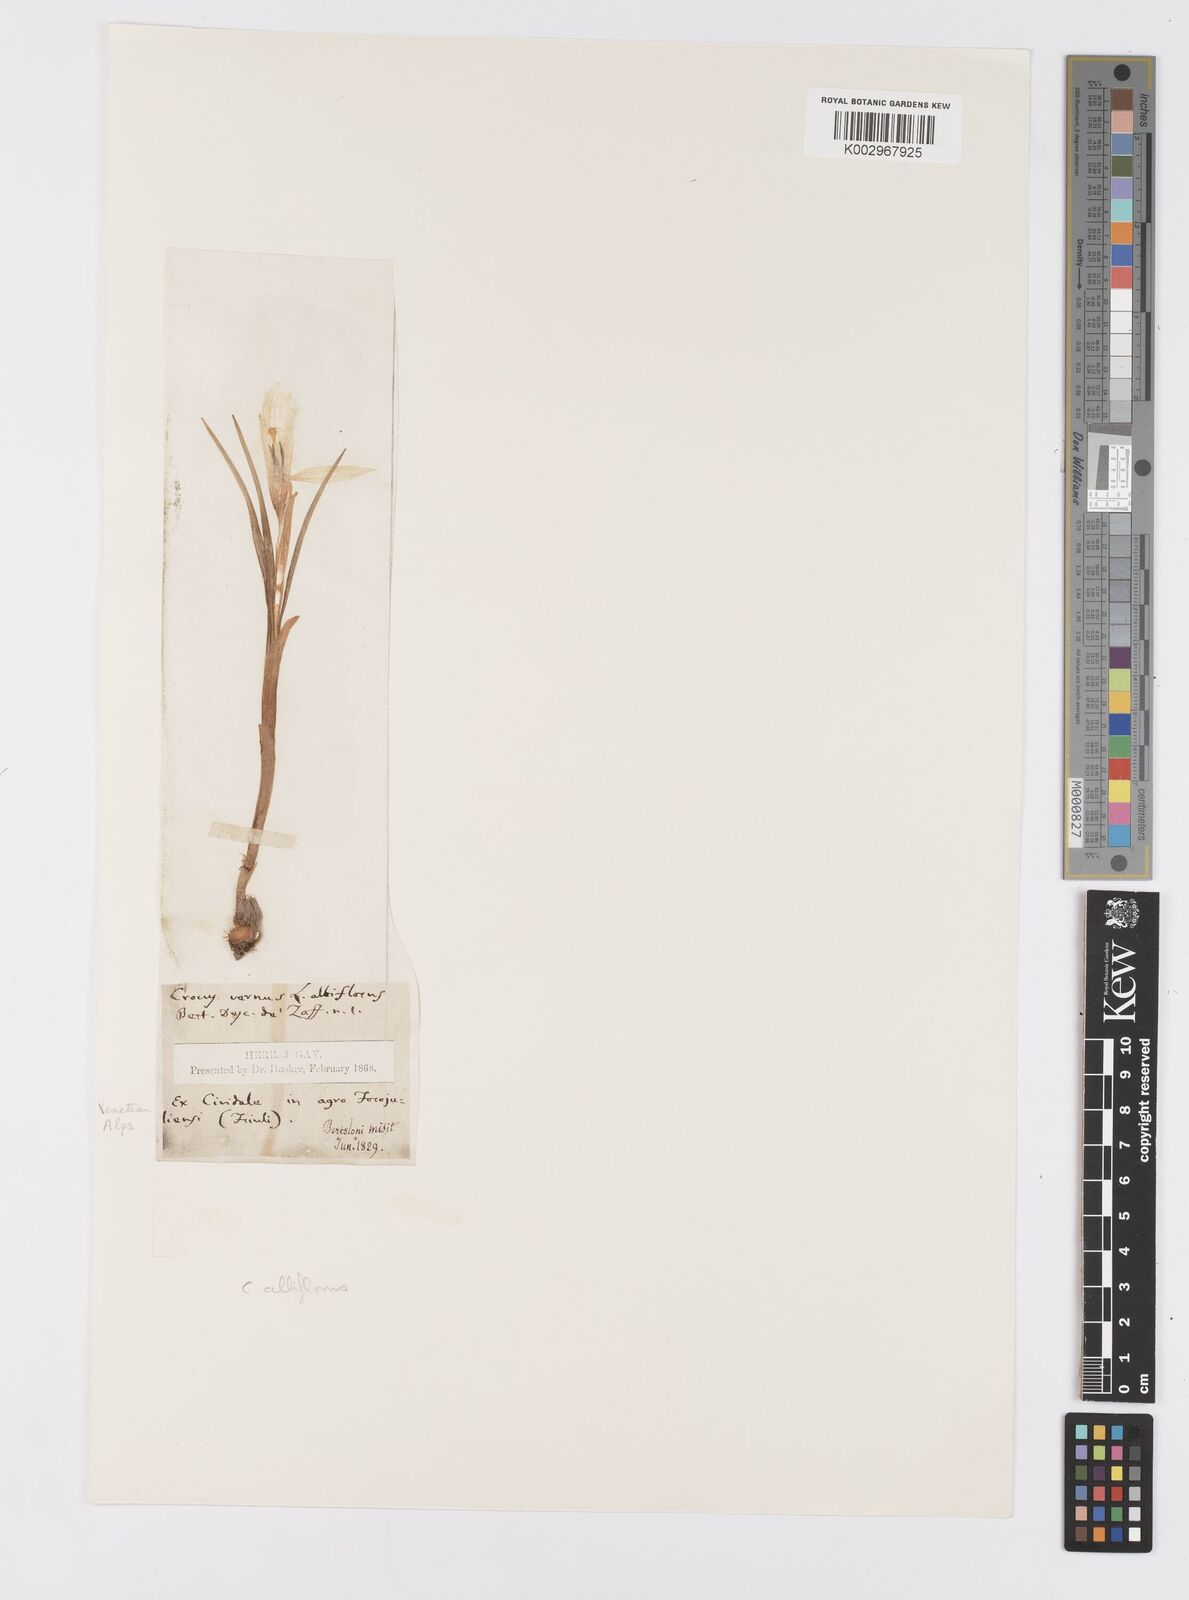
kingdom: Plantae
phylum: Tracheophyta
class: Liliopsida
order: Asparagales
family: Iridaceae
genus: Crocus
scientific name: Crocus
